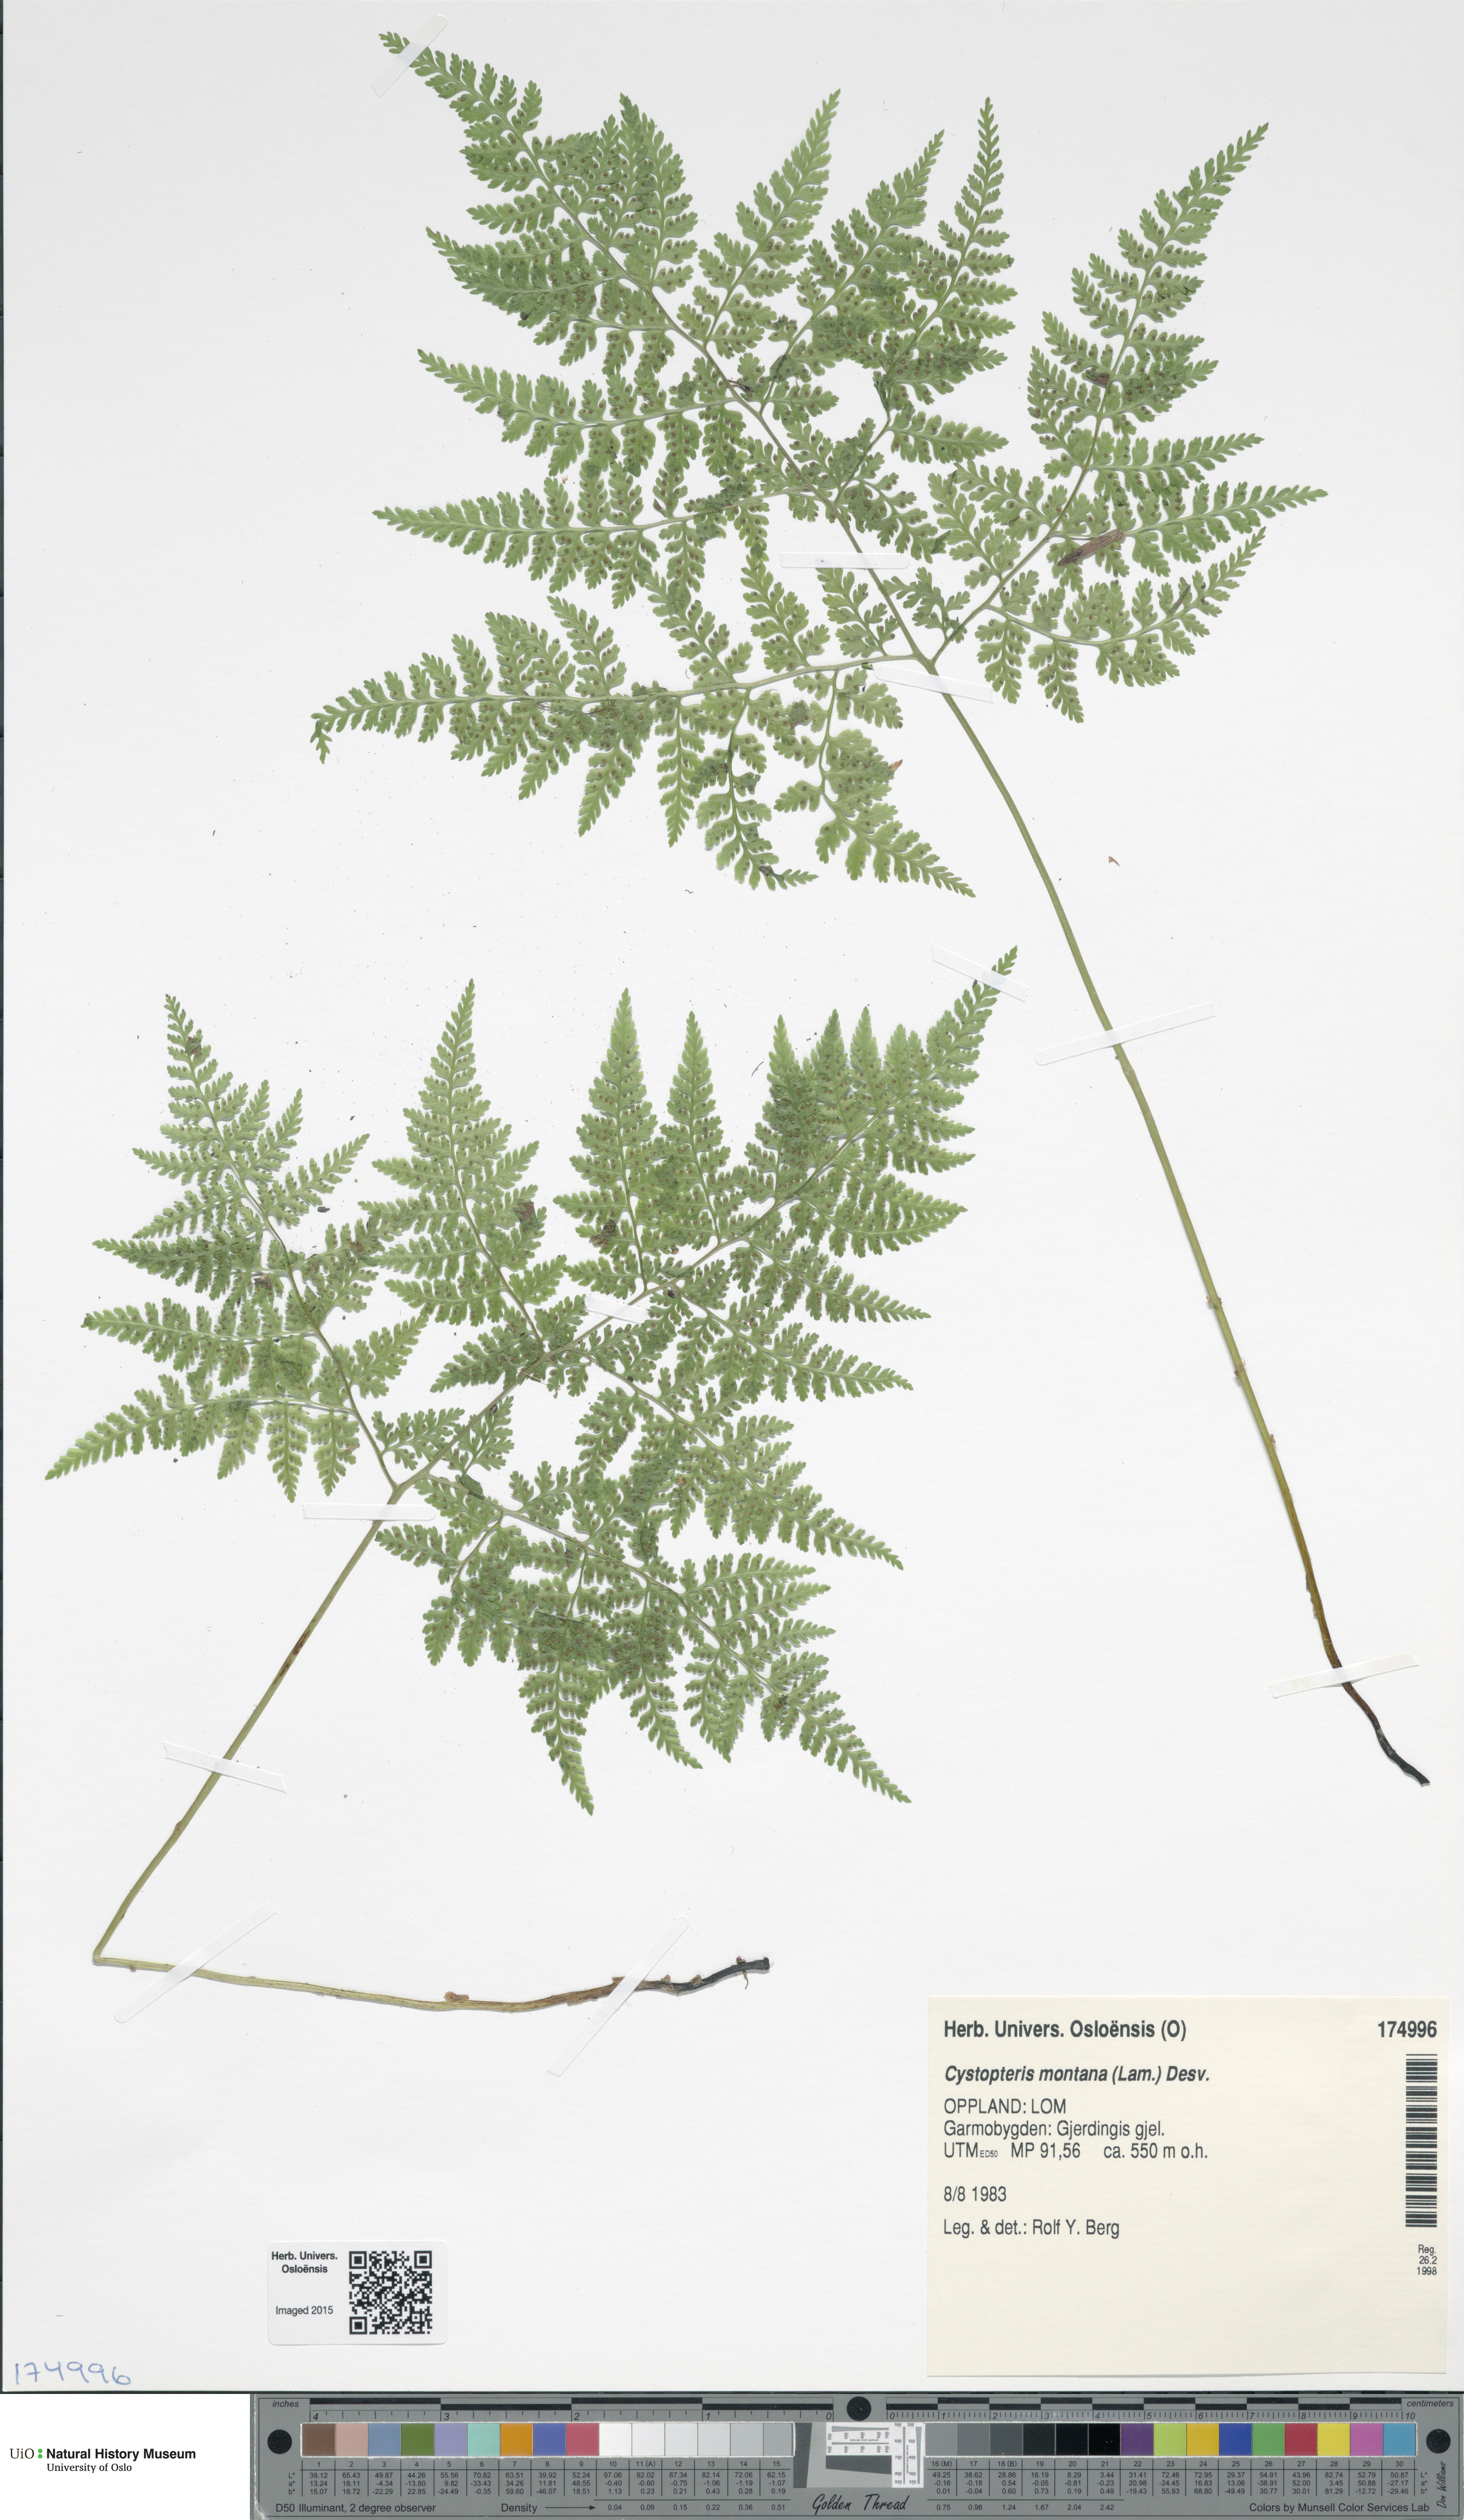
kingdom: Plantae
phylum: Tracheophyta
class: Polypodiopsida
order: Polypodiales
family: Cystopteridaceae
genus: Cystopteris
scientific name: Cystopteris montana
